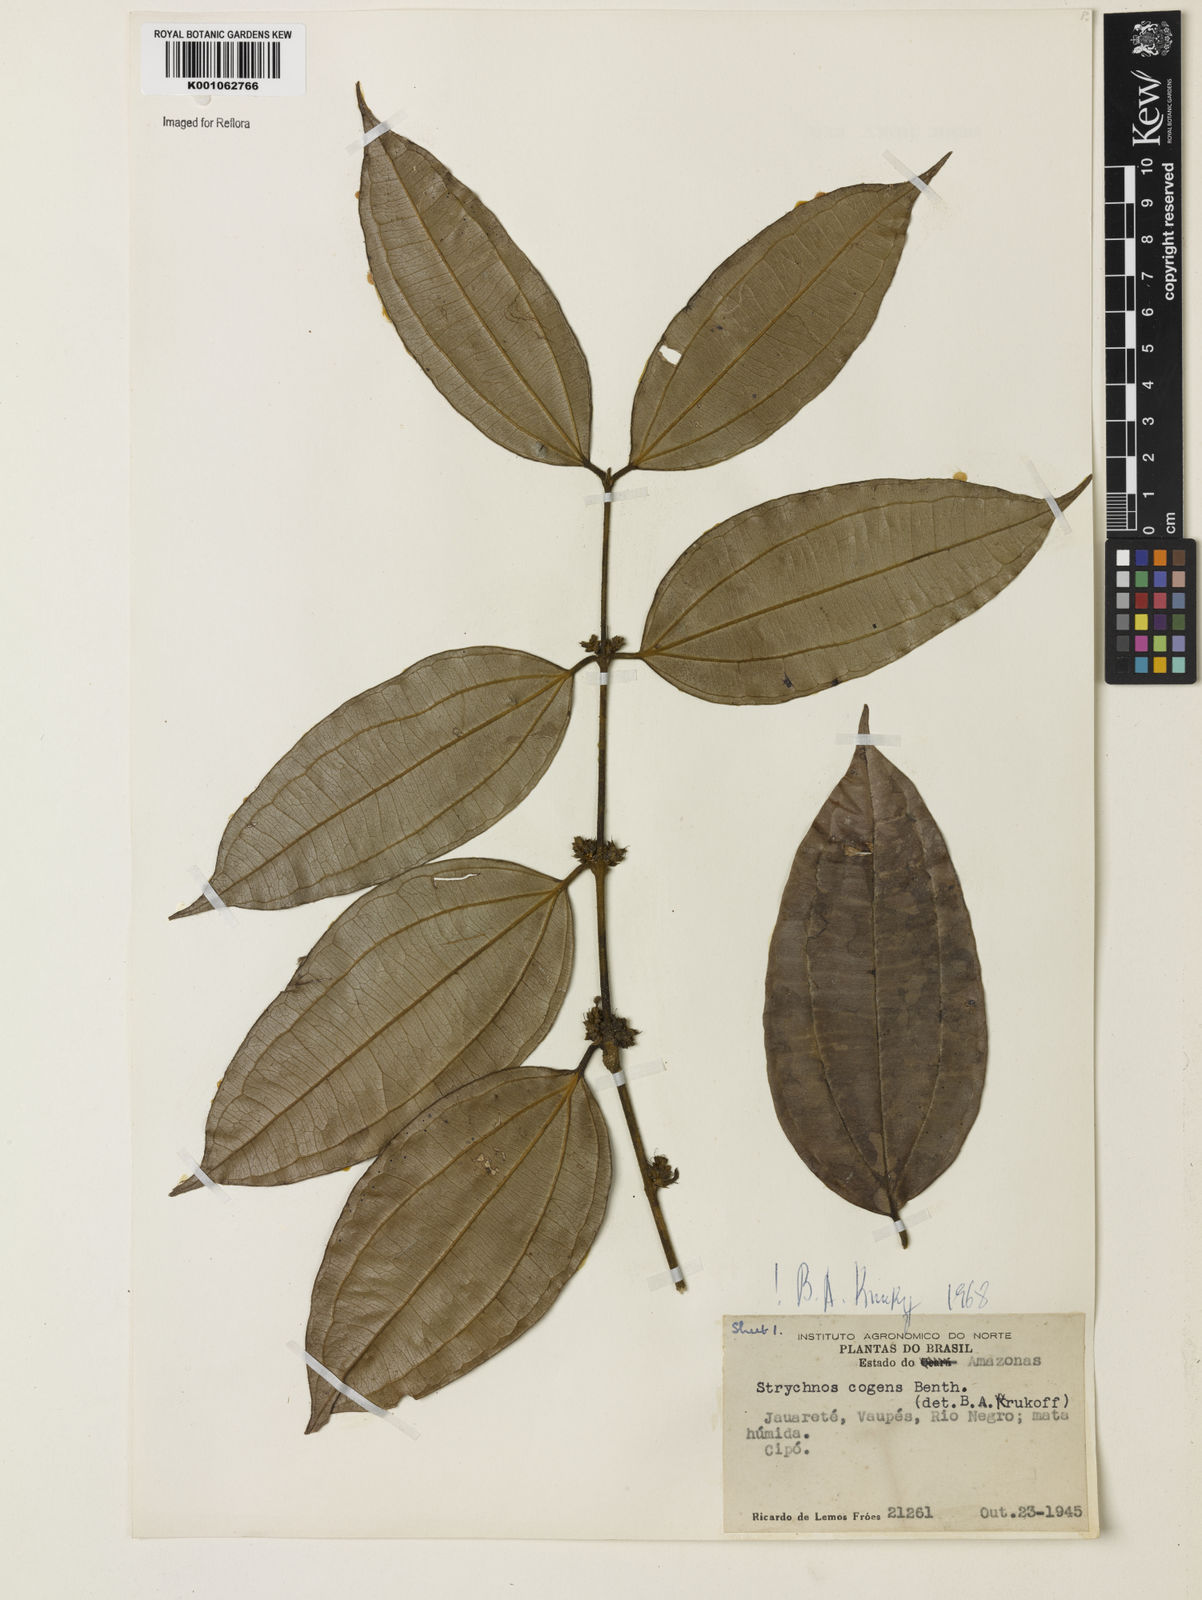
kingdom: Plantae
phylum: Tracheophyta
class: Magnoliopsida
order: Gentianales
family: Loganiaceae
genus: Strychnos
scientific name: Strychnos cogens
